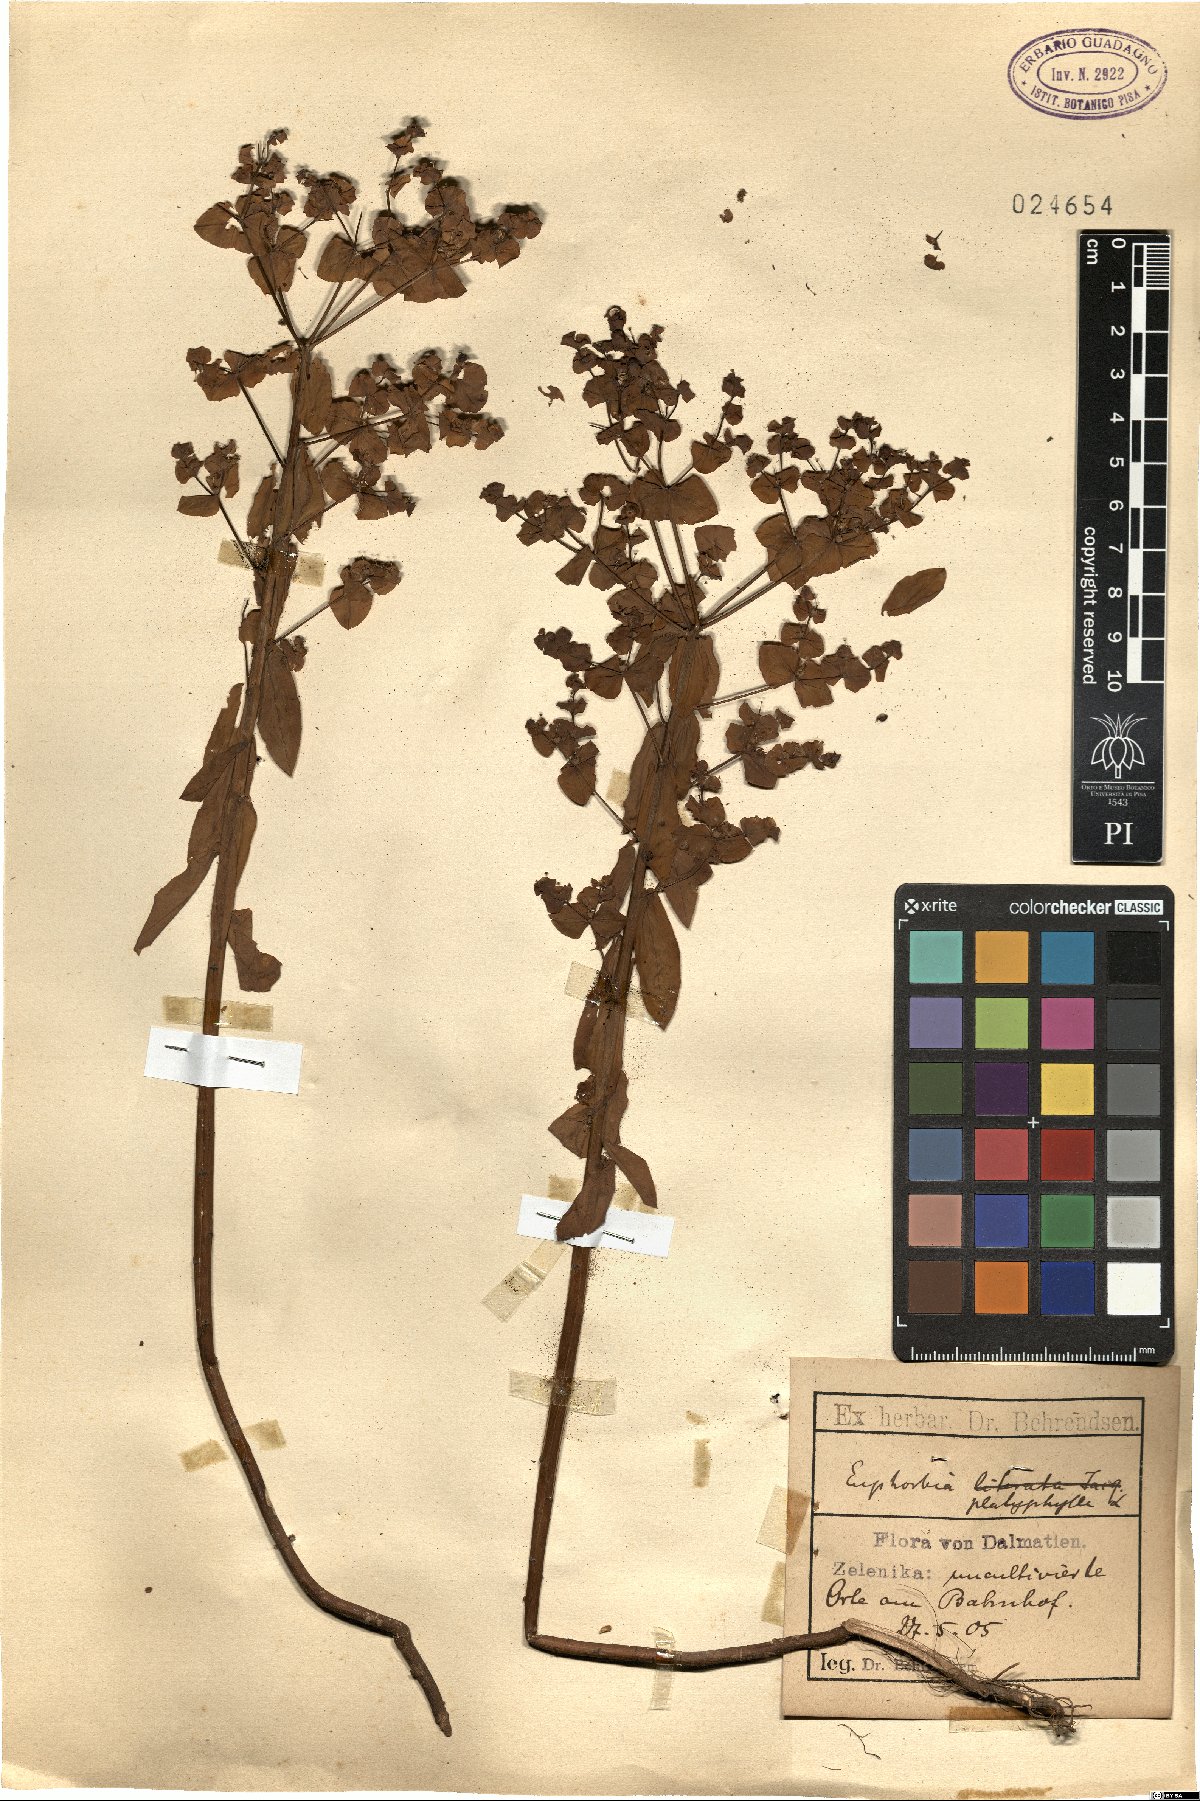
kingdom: Plantae
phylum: Tracheophyta
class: Magnoliopsida
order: Malpighiales
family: Euphorbiaceae
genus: Euphorbia
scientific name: Euphorbia platyphyllos
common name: Broad-leaved spurge
